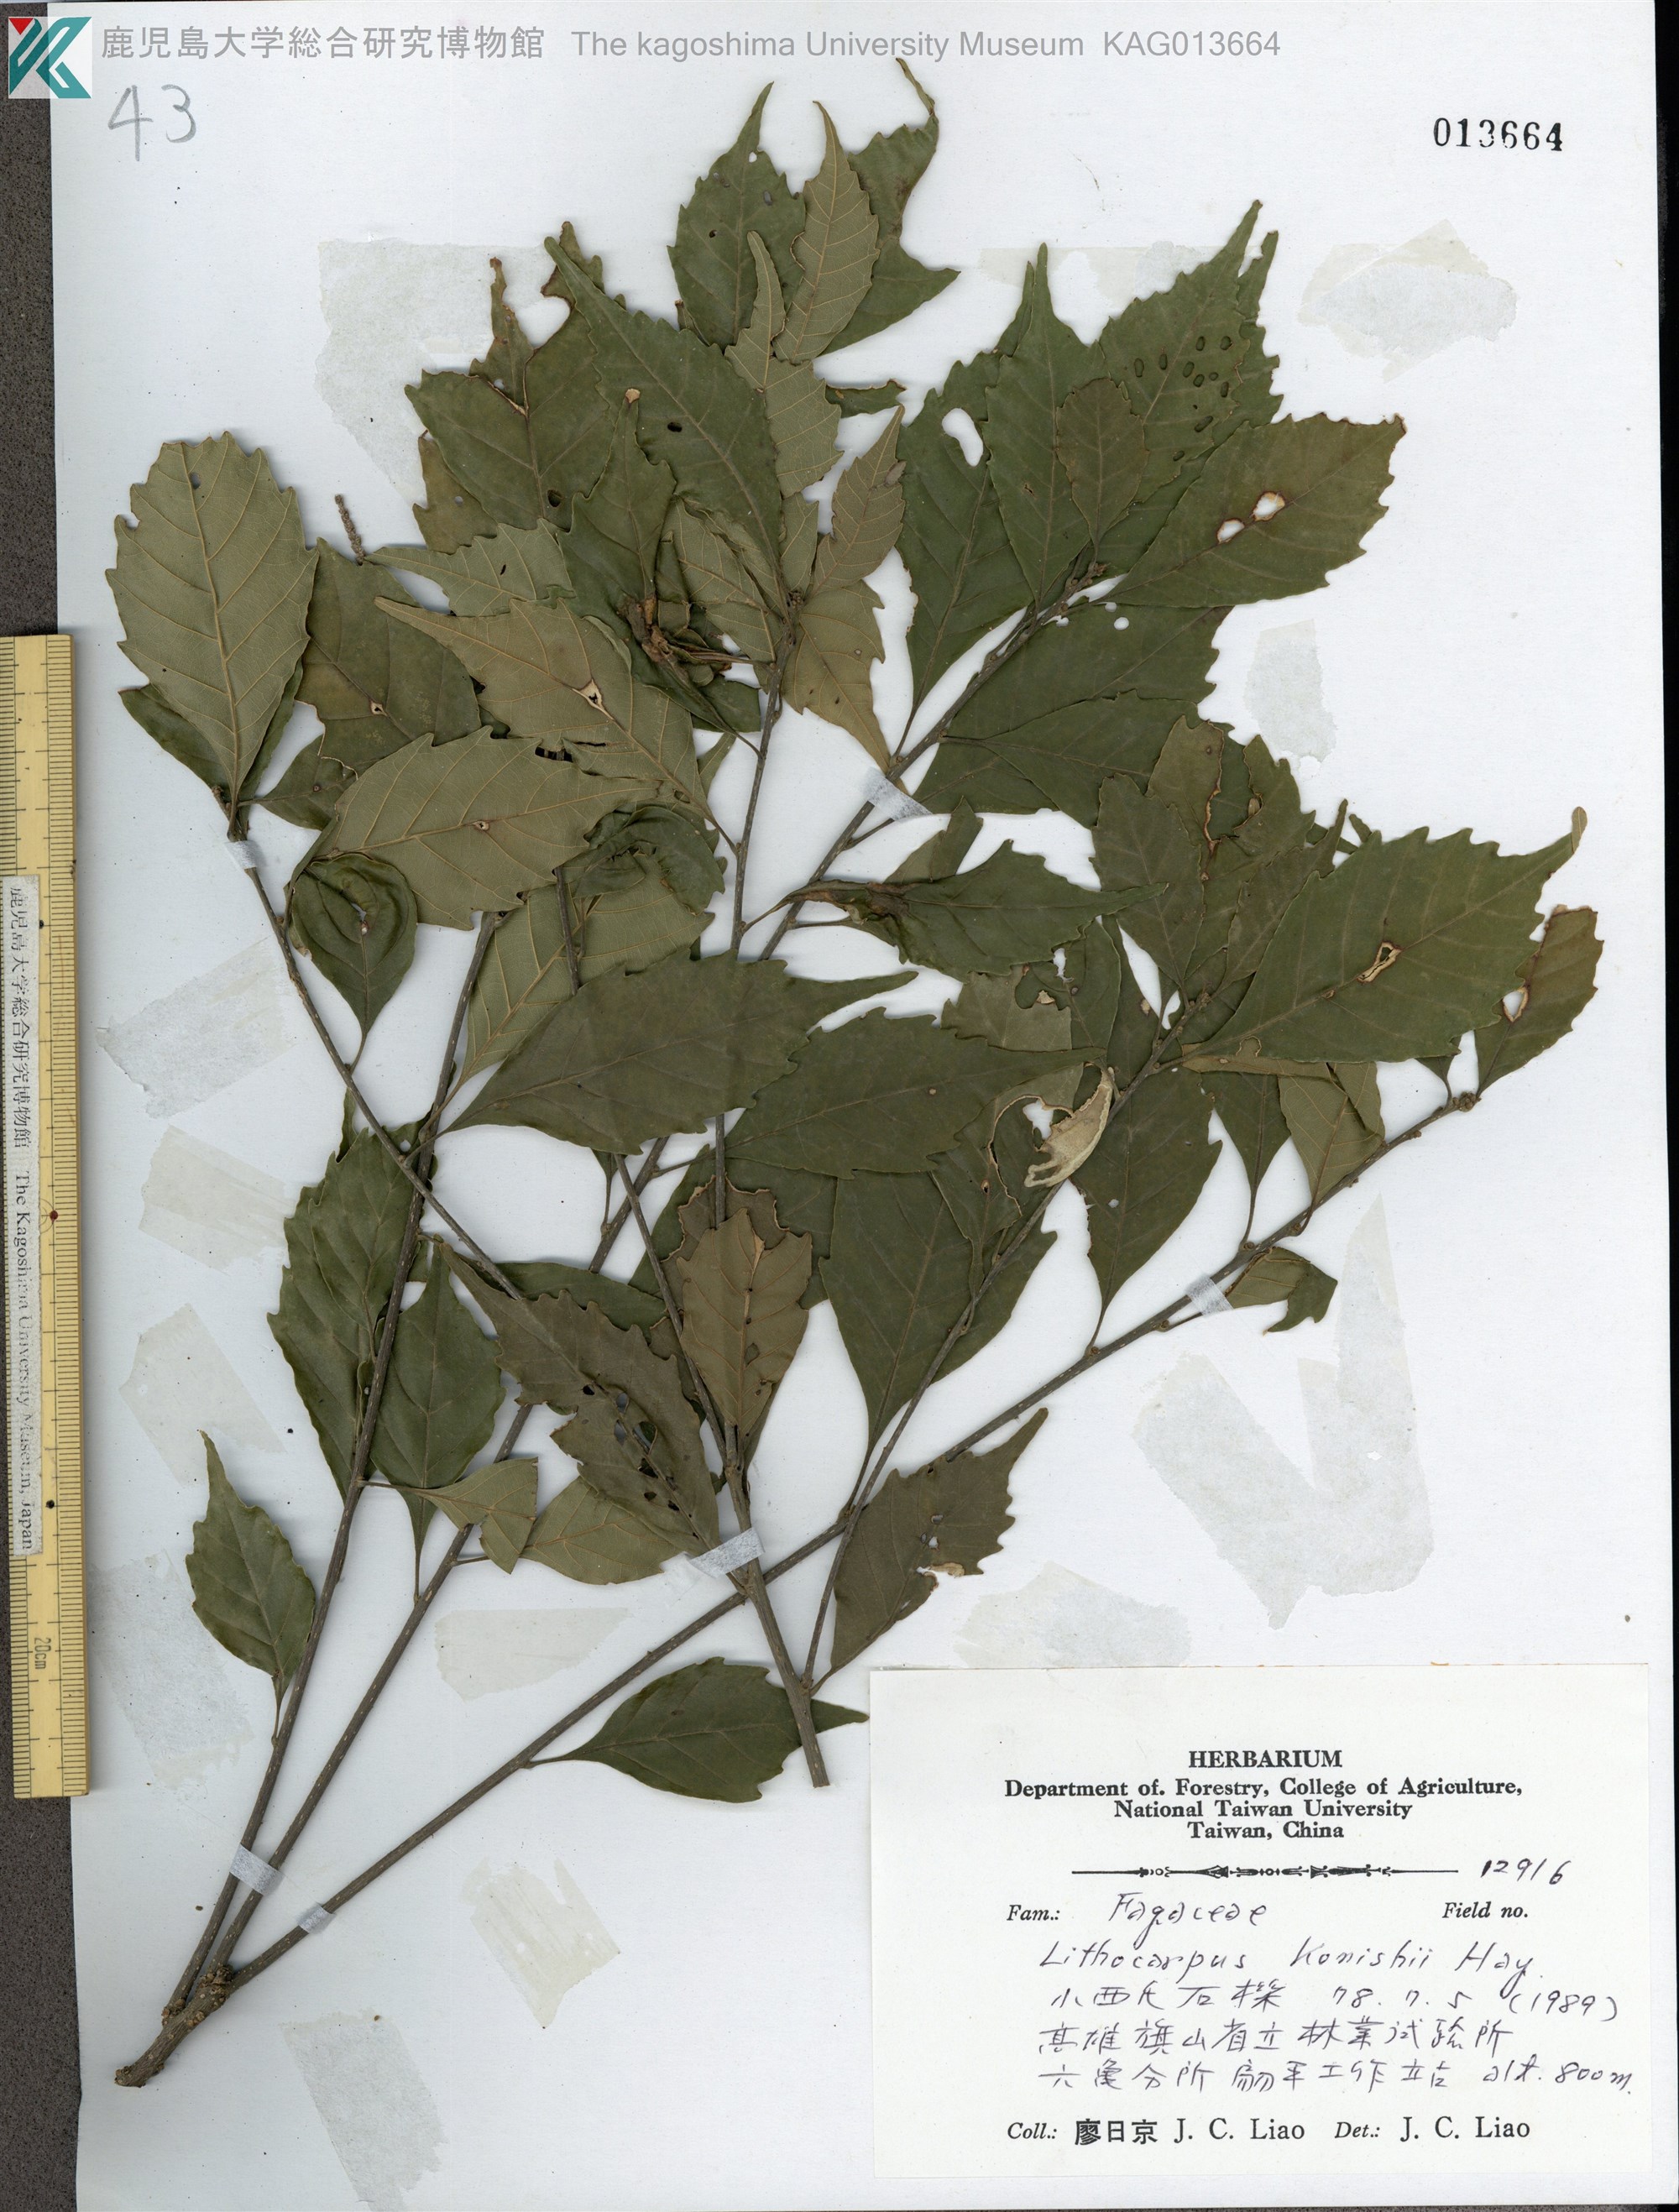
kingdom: Plantae
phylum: Tracheophyta
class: Magnoliopsida
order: Fagales
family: Fagaceae
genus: Lithocarpus
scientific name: Lithocarpus konishii
